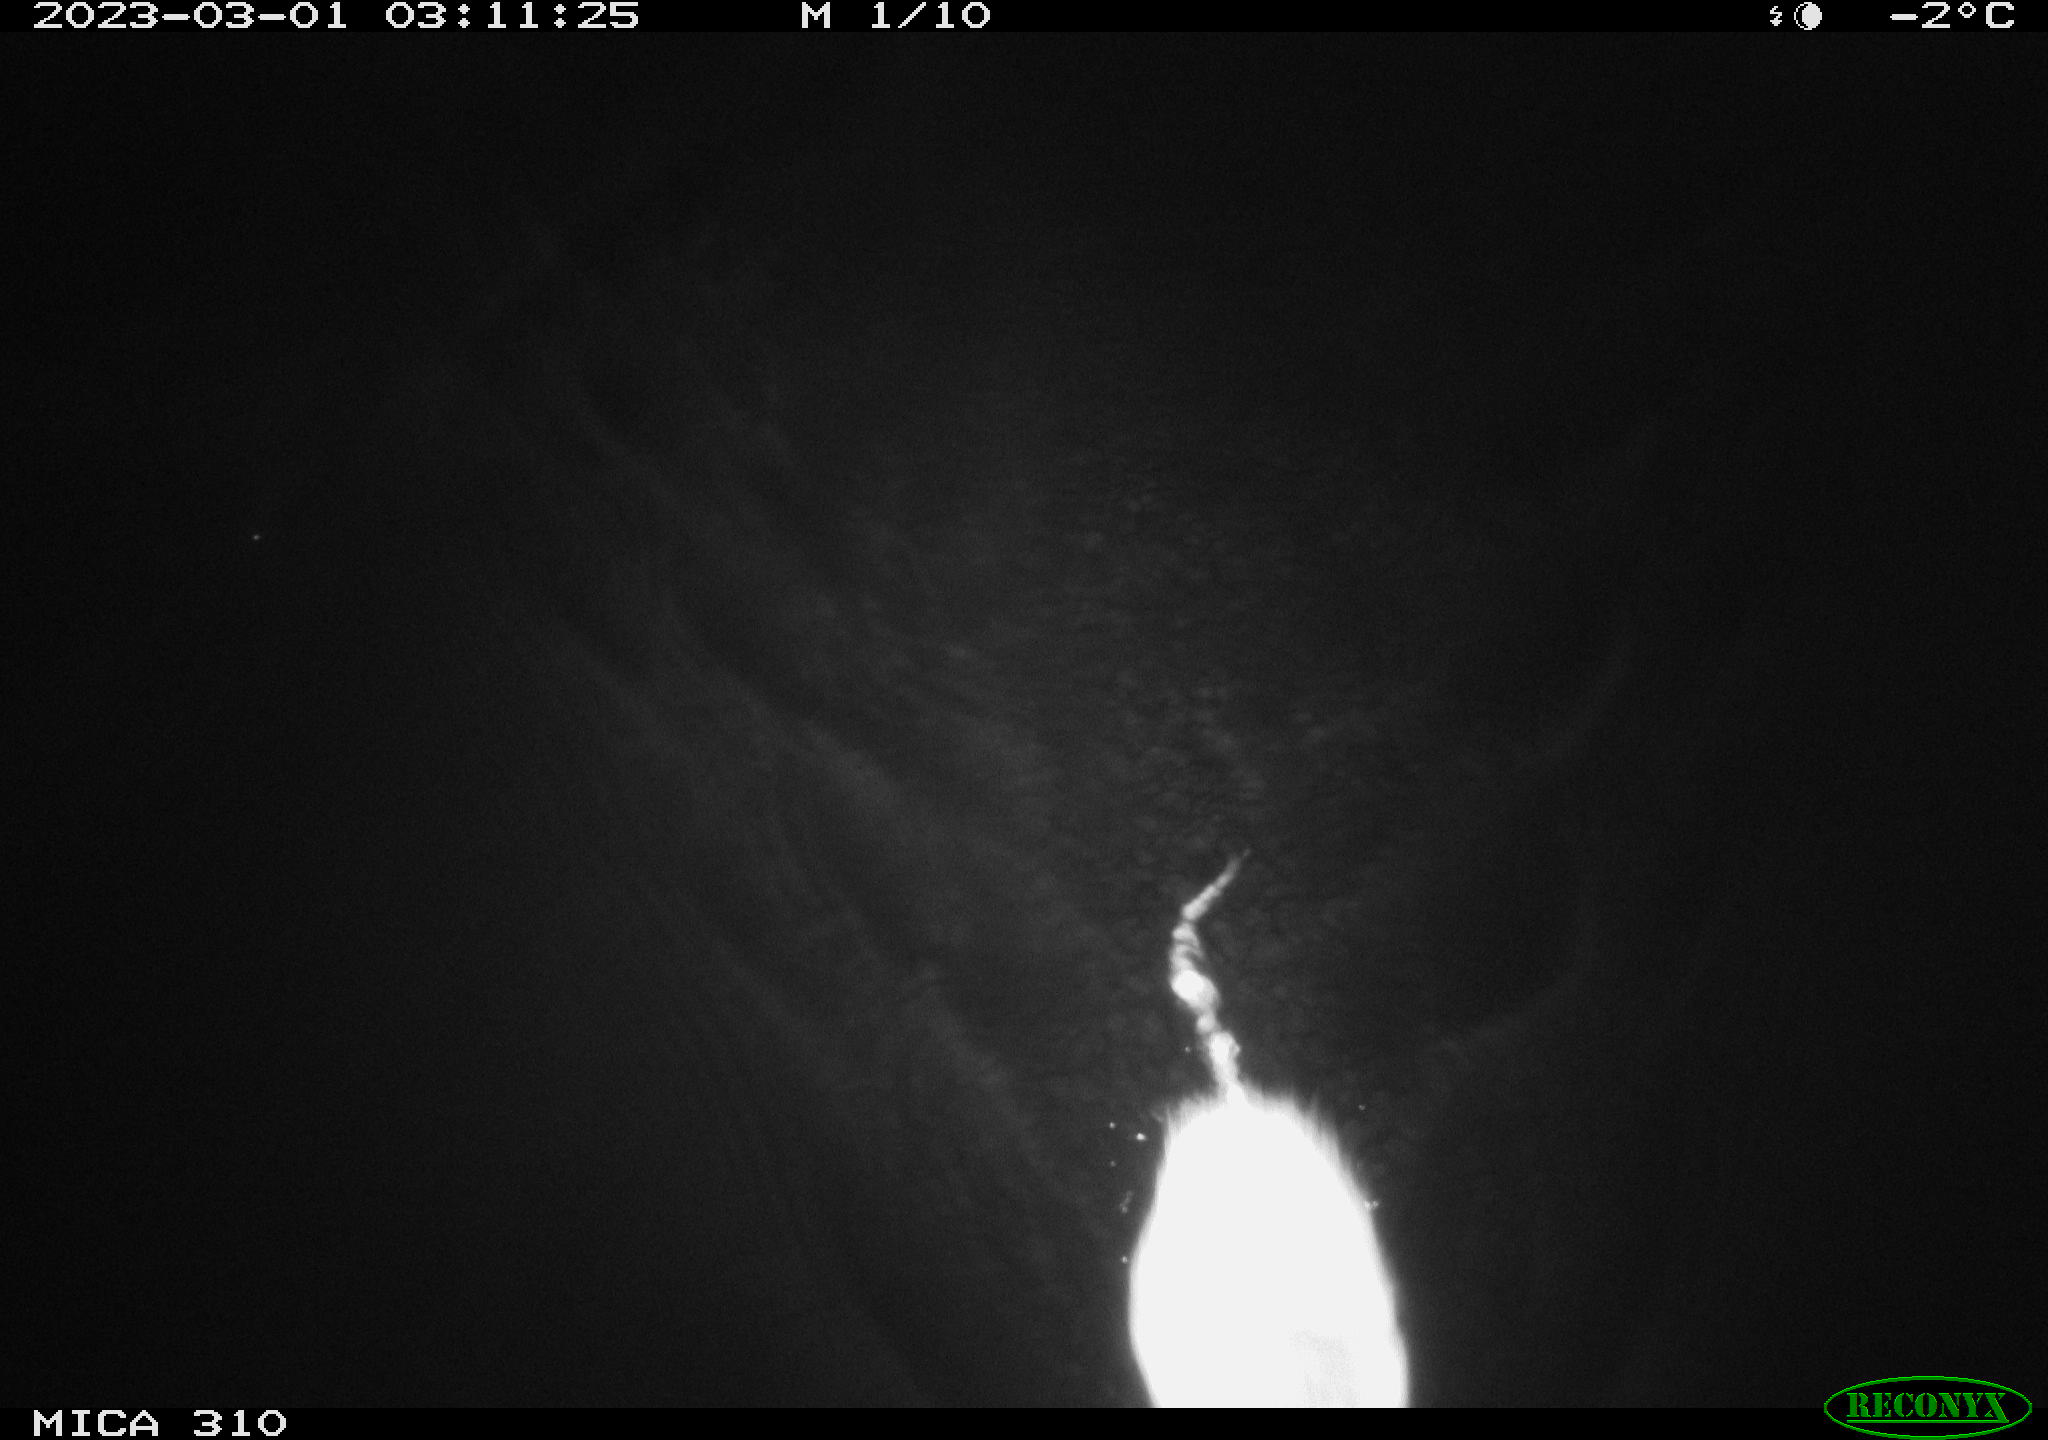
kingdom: Animalia
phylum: Chordata
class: Mammalia
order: Rodentia
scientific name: Rodentia
